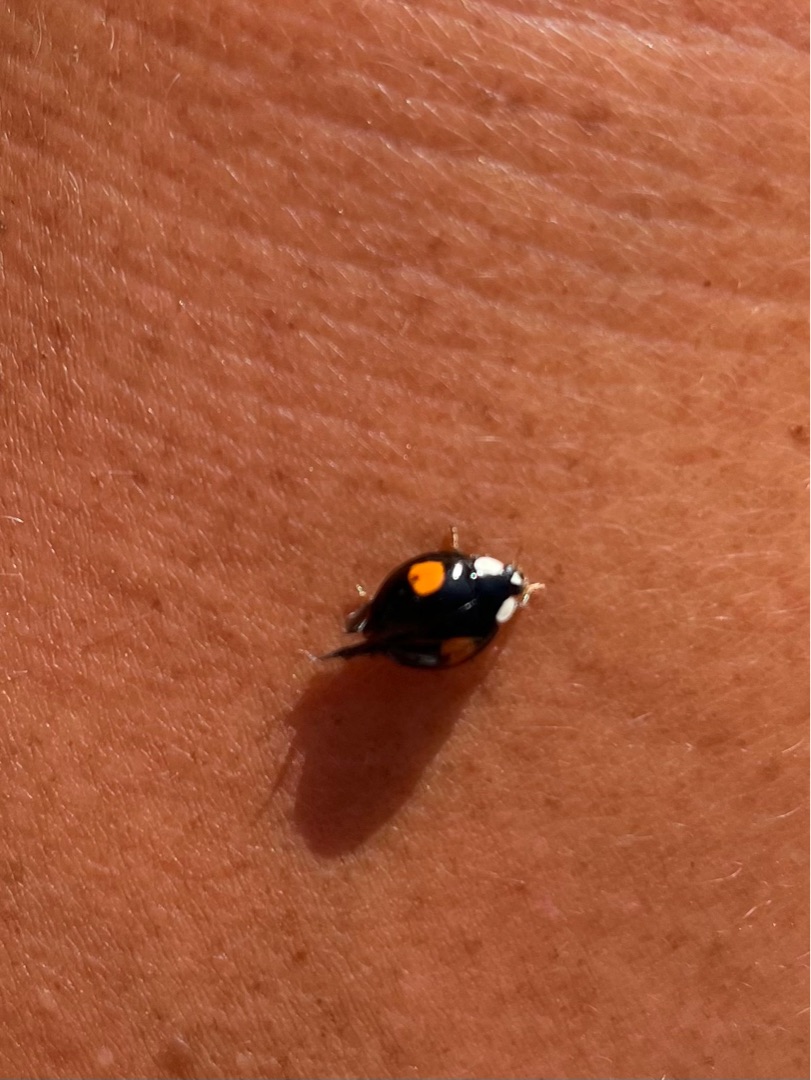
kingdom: Animalia
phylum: Arthropoda
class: Insecta
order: Coleoptera
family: Coccinellidae
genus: Harmonia
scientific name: Harmonia axyridis
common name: Harlekinmariehøne
